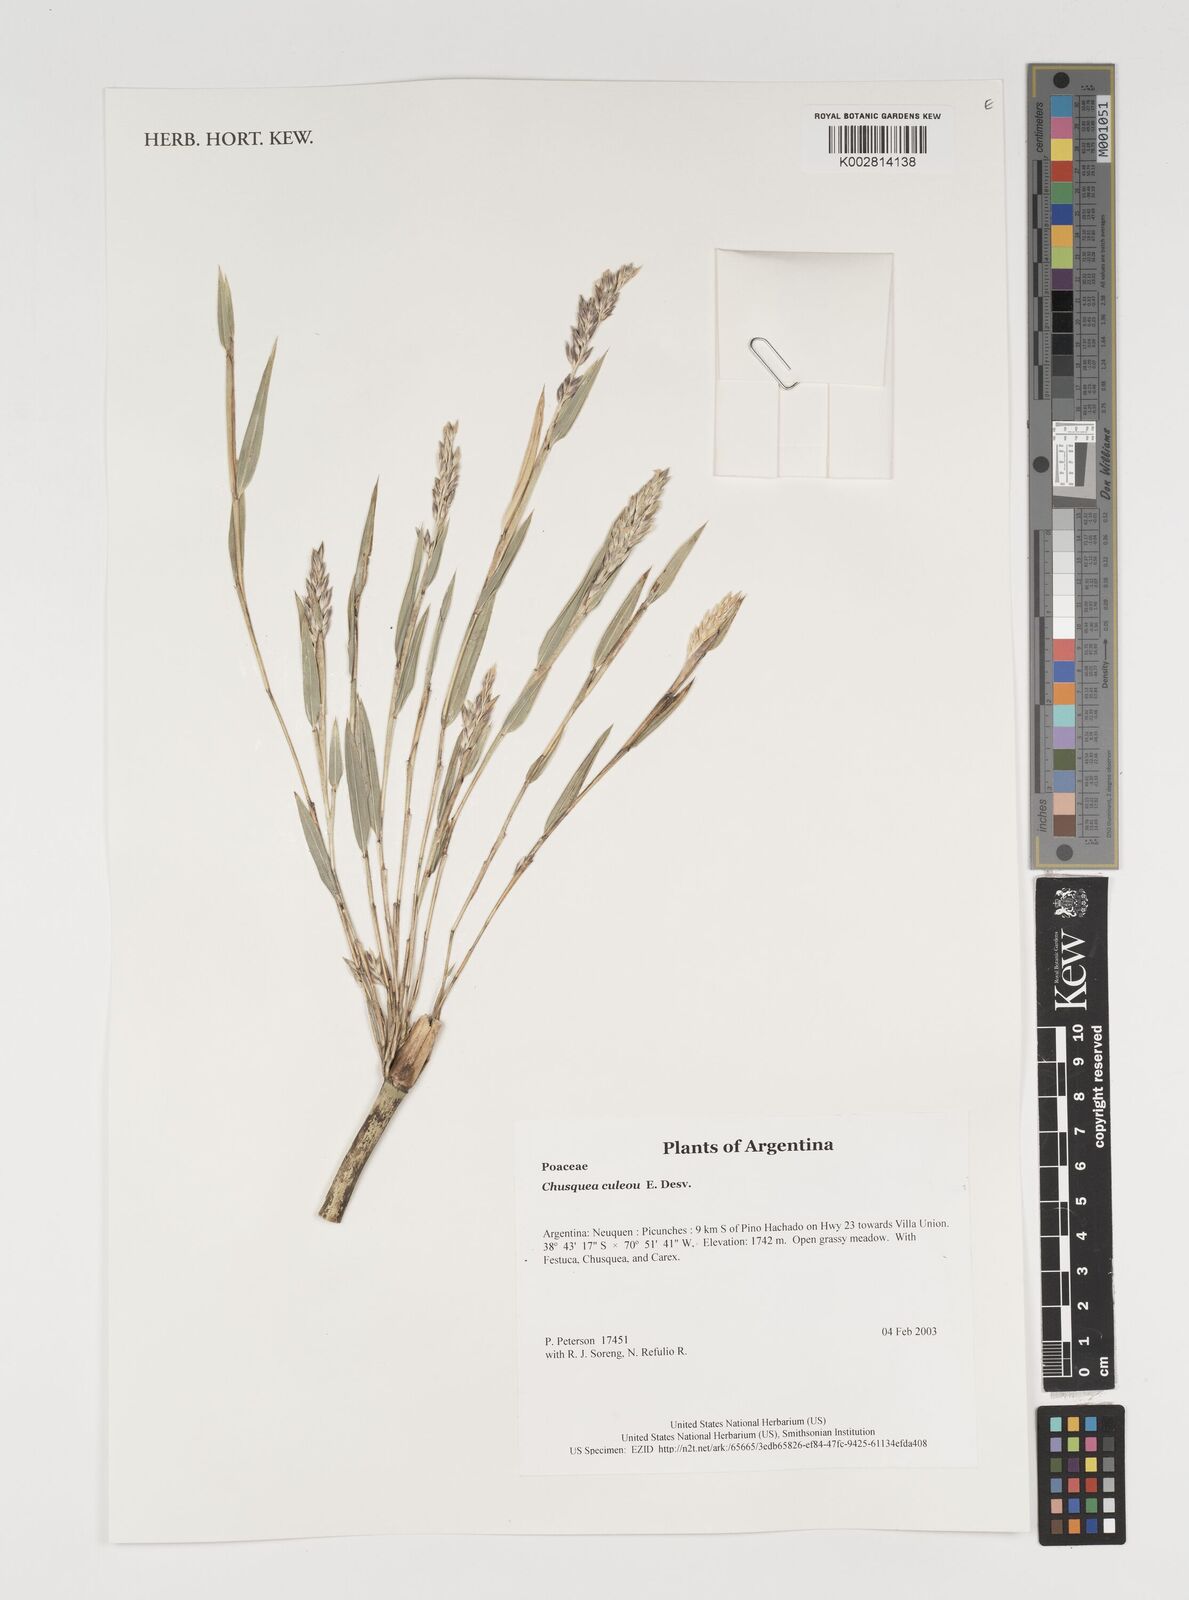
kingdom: Plantae
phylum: Tracheophyta
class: Liliopsida
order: Poales
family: Poaceae
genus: Chusquea
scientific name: Chusquea culeou
